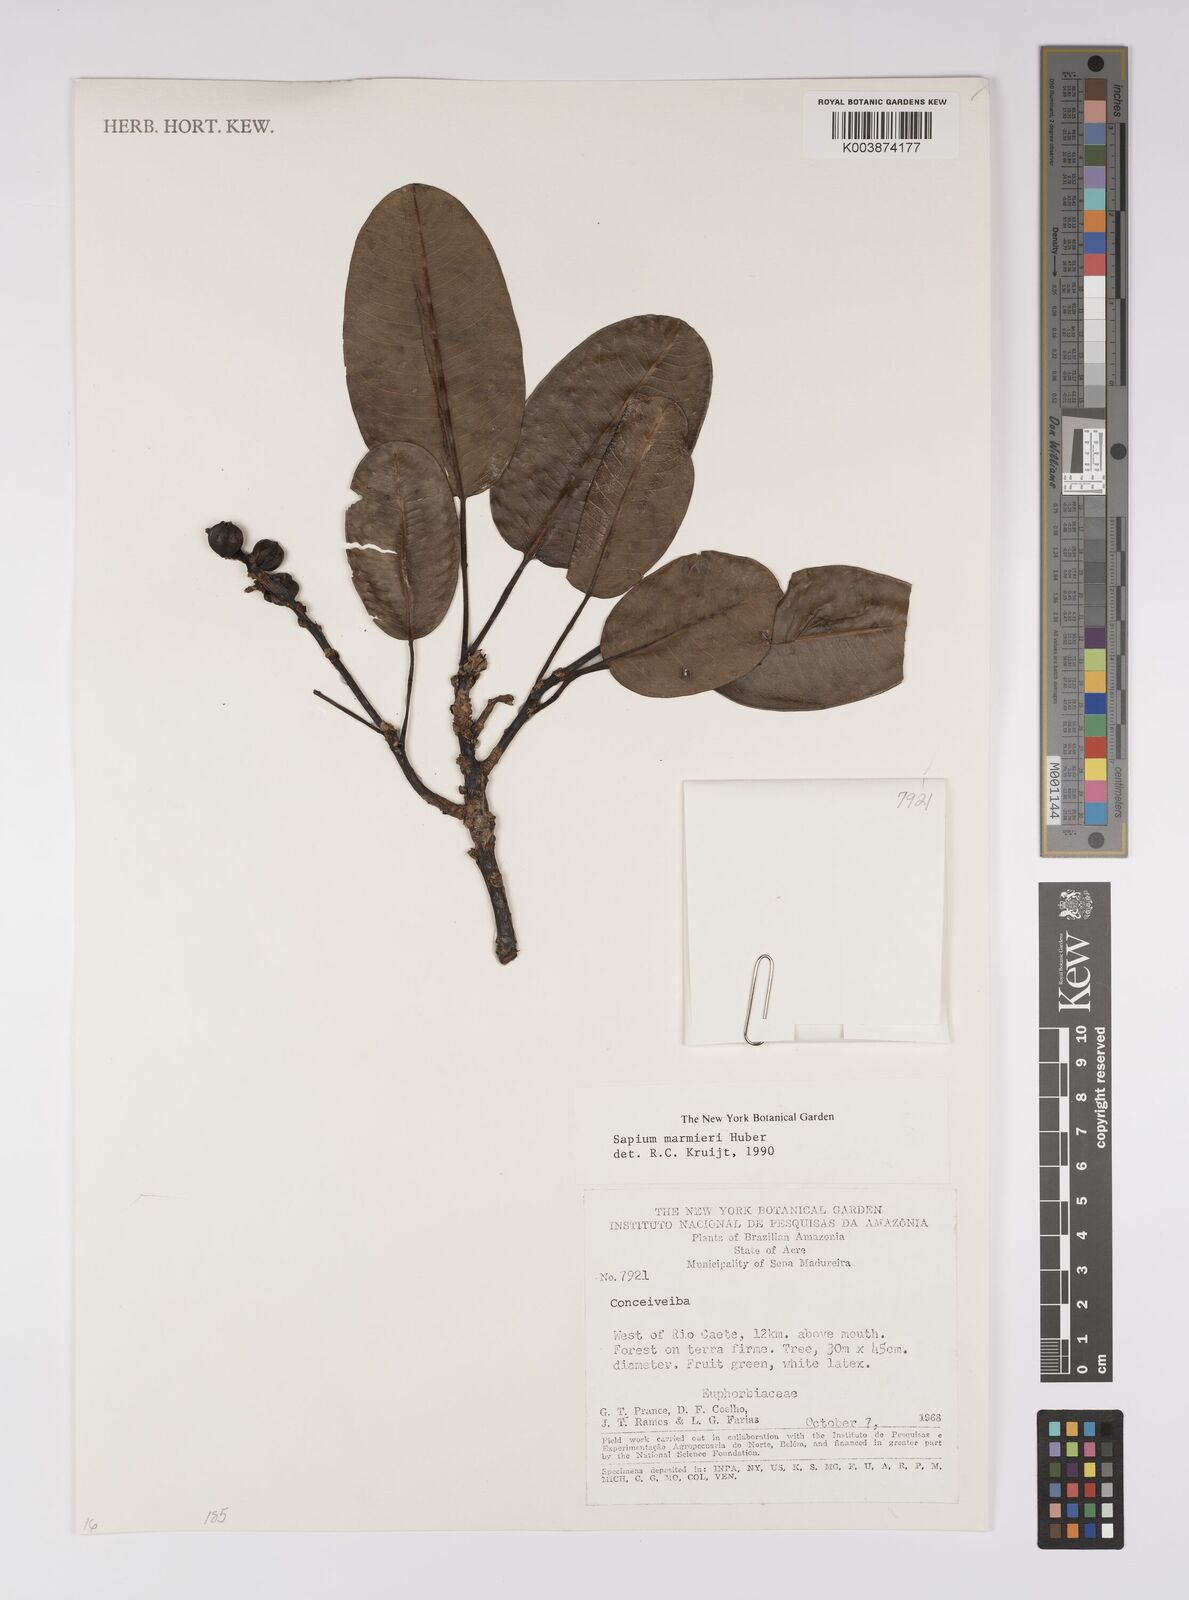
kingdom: Plantae
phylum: Tracheophyta
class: Magnoliopsida
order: Malpighiales
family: Euphorbiaceae
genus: Sapium
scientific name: Sapium marmieri
